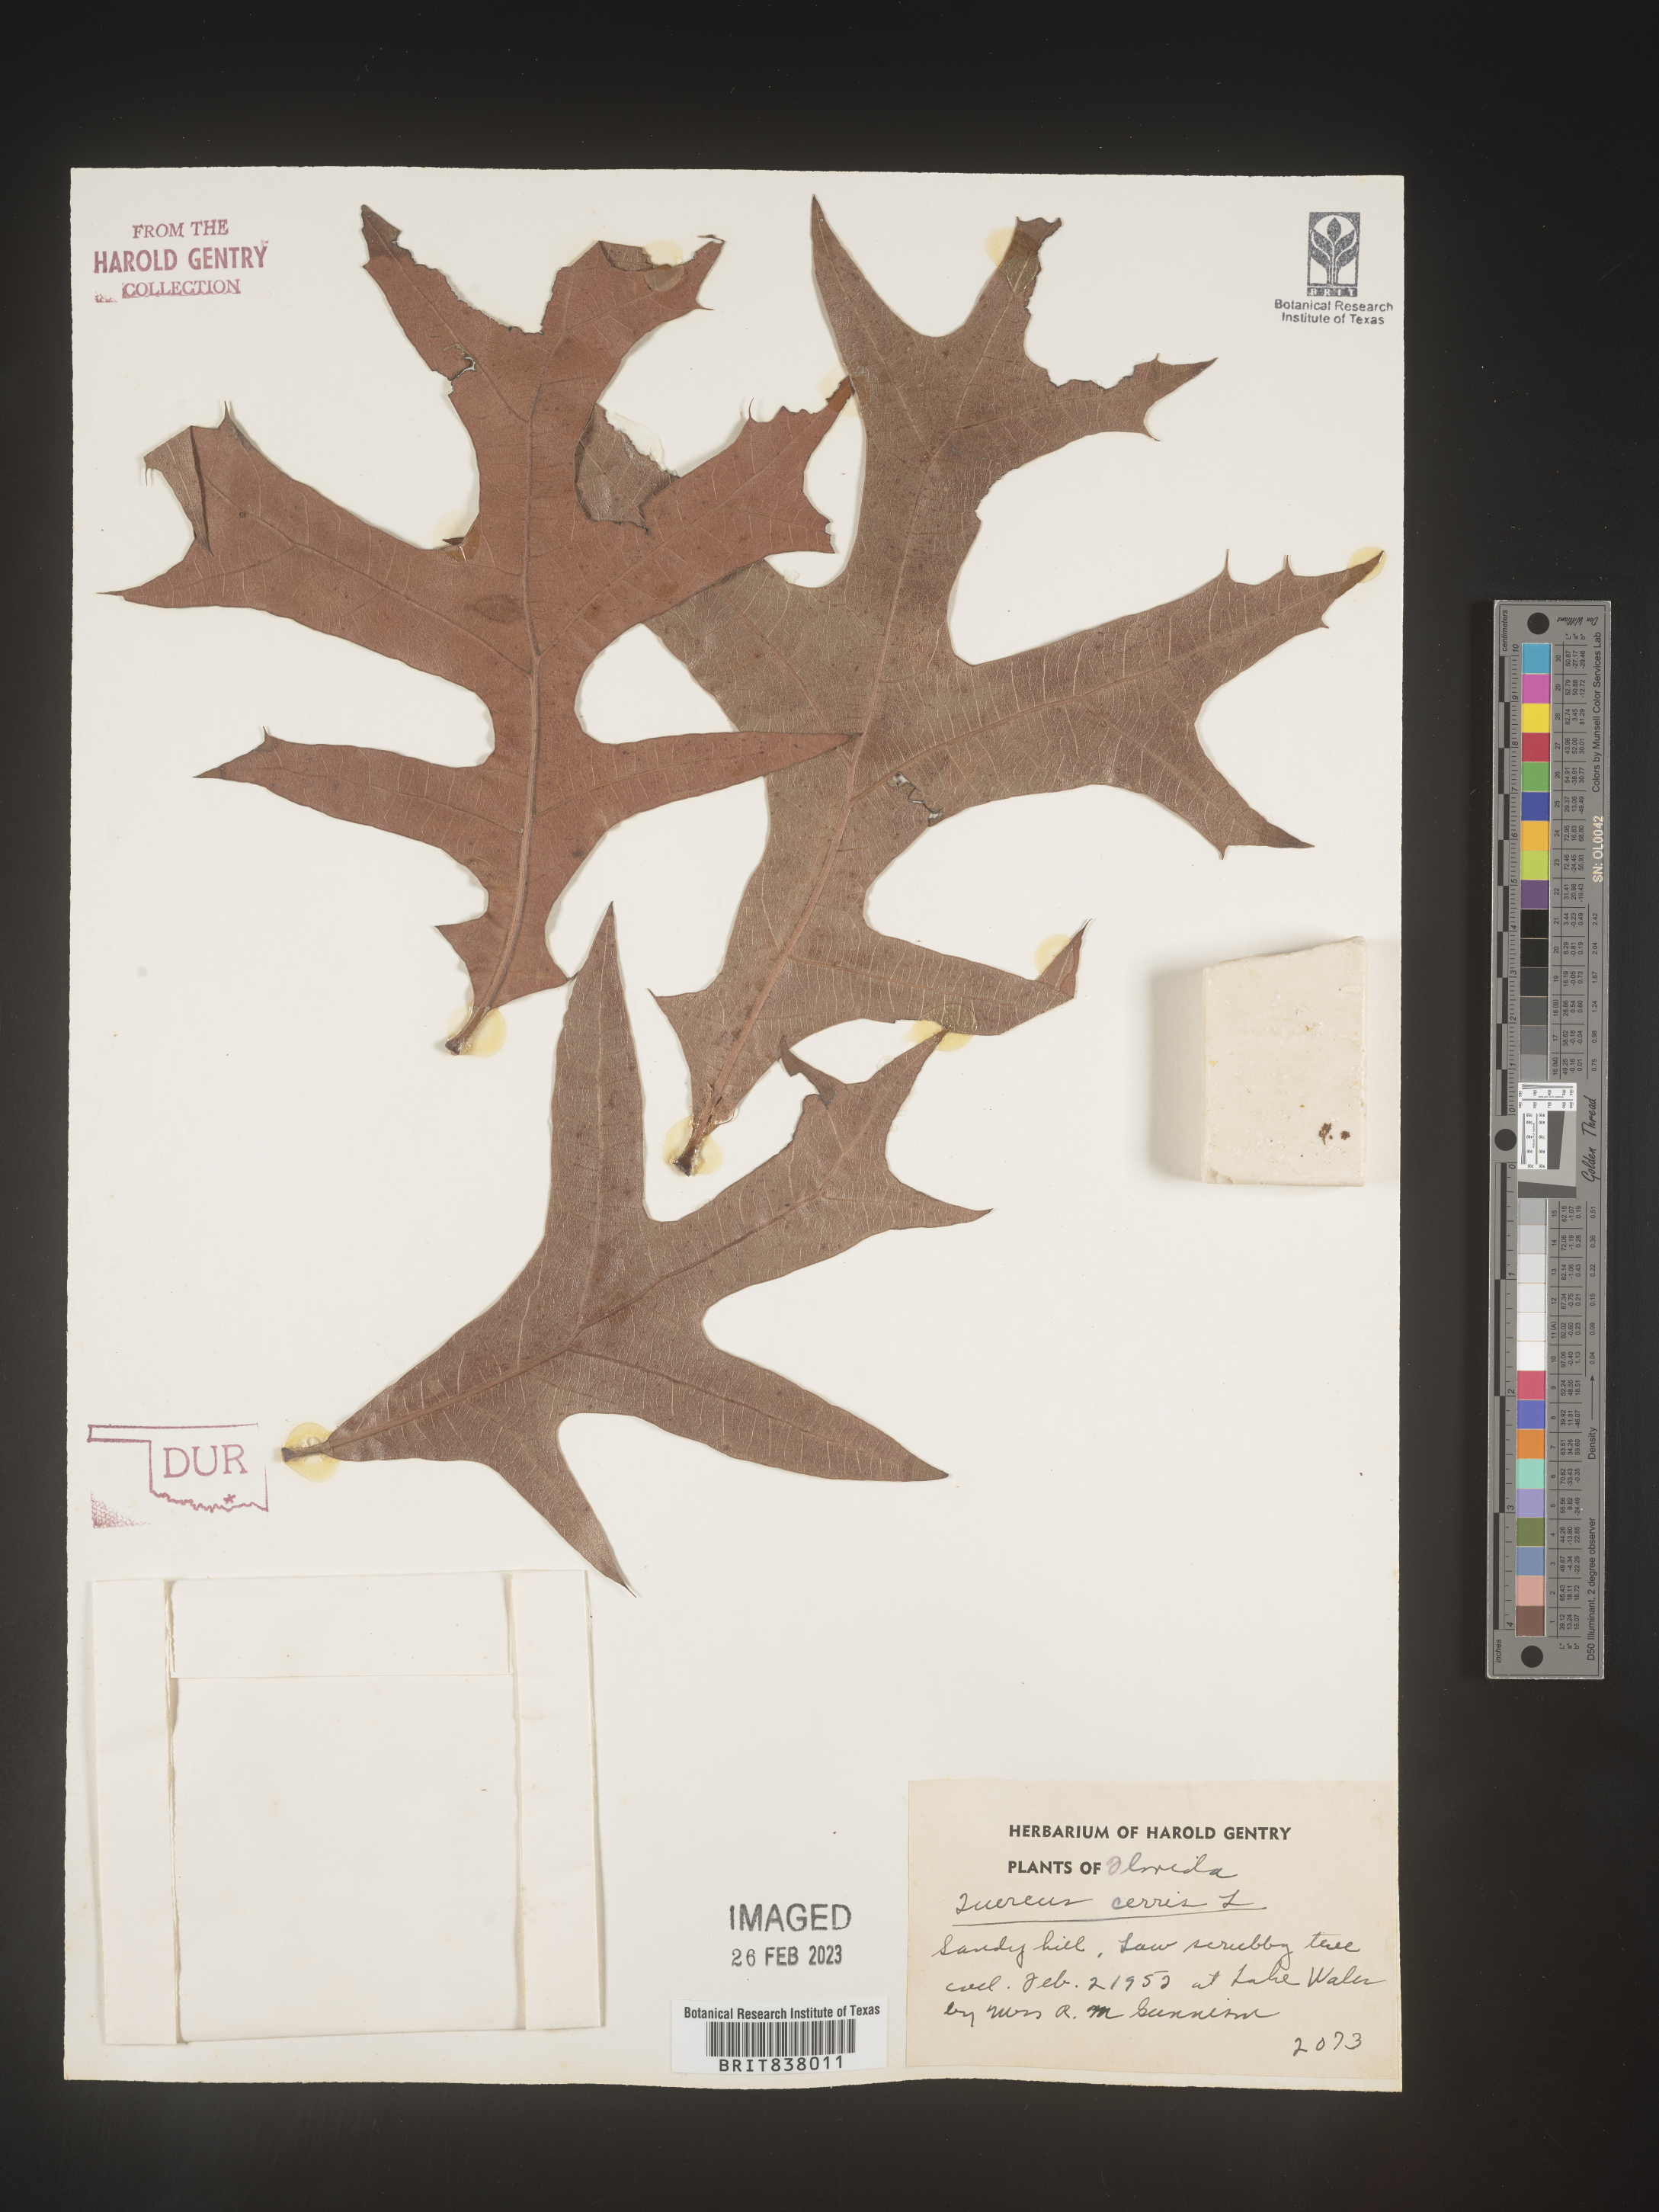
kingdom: Plantae
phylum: Tracheophyta
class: Magnoliopsida
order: Fagales
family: Fagaceae
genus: Quercus
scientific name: Quercus
